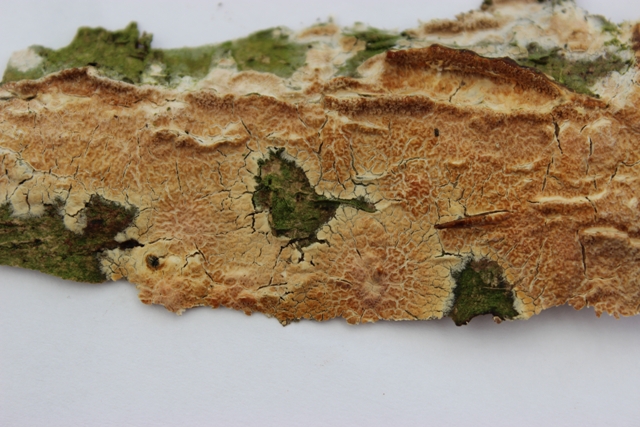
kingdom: Fungi
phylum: Basidiomycota
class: Agaricomycetes
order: Agaricales
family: Physalacriaceae
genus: Cylindrobasidium
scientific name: Cylindrobasidium evolvens
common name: sprækkehinde
